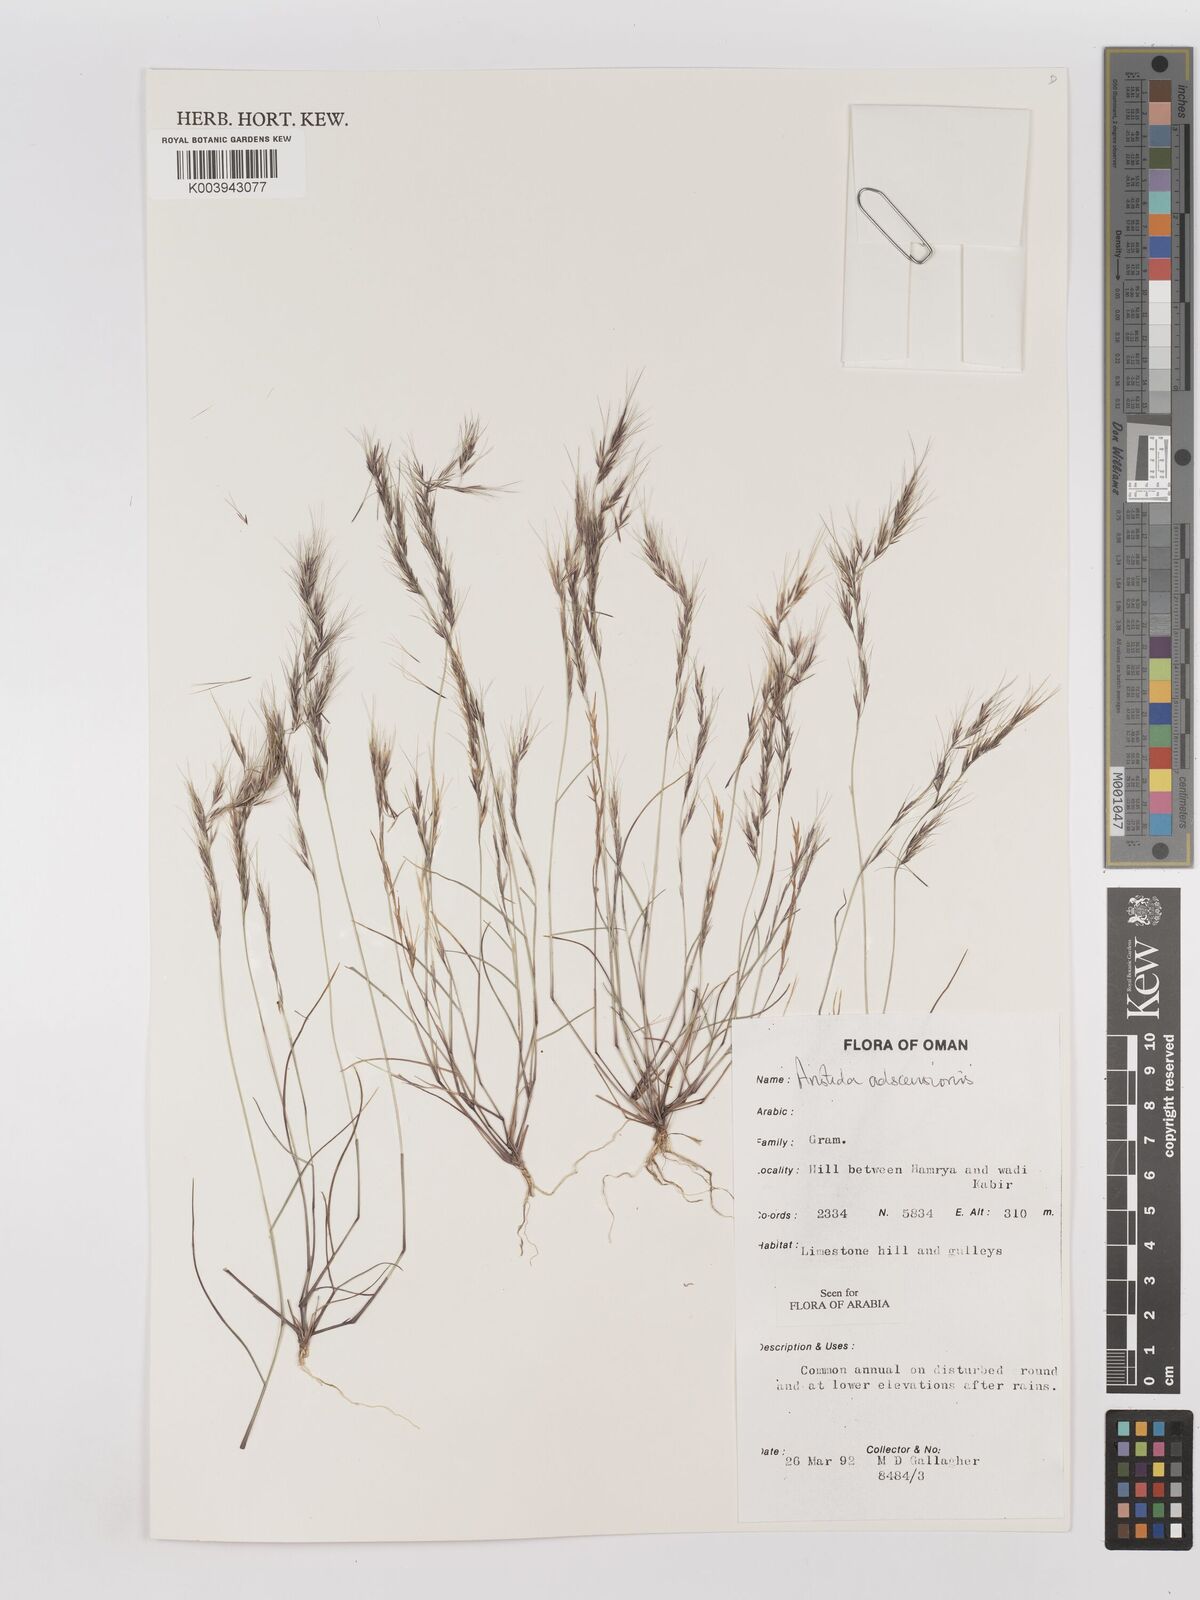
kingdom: Plantae
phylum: Tracheophyta
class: Liliopsida
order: Poales
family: Poaceae
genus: Aristida
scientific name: Aristida adscensionis
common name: Sixweeks threeawn
